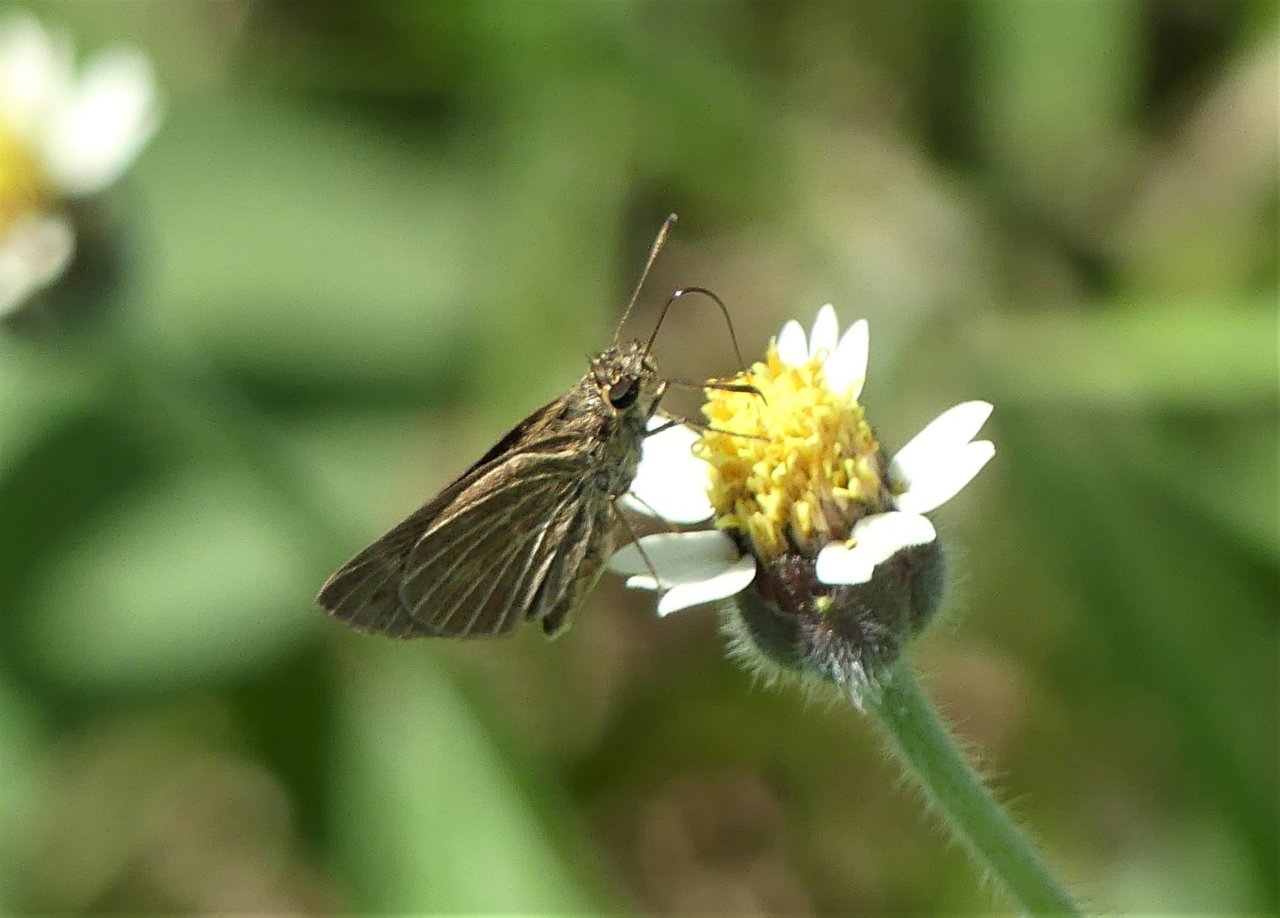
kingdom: Animalia
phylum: Arthropoda
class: Insecta
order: Lepidoptera
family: Hesperiidae
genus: Vehilius
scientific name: Vehilius stictomenes
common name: Pasture Skipper
